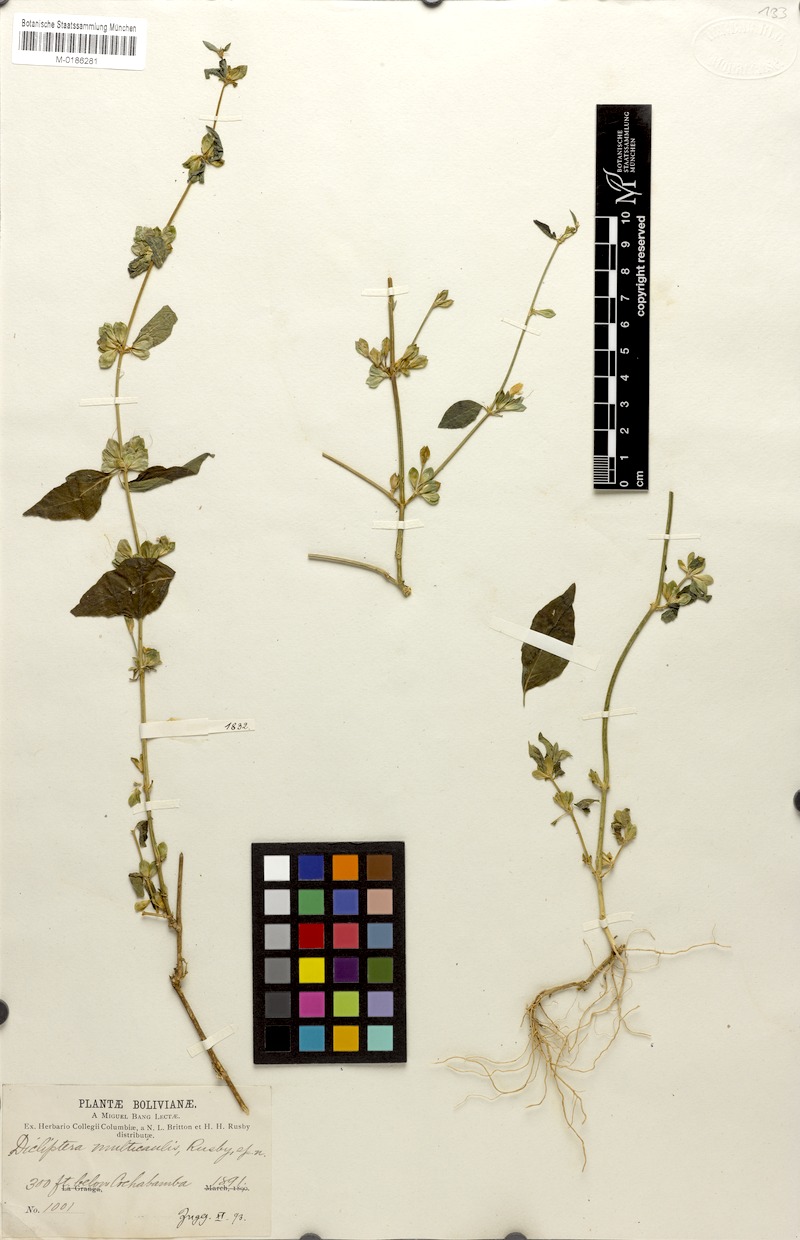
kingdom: Plantae
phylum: Tracheophyta
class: Magnoliopsida
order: Lamiales
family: Acanthaceae
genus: Dicliptera
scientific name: Dicliptera cochabambensis
